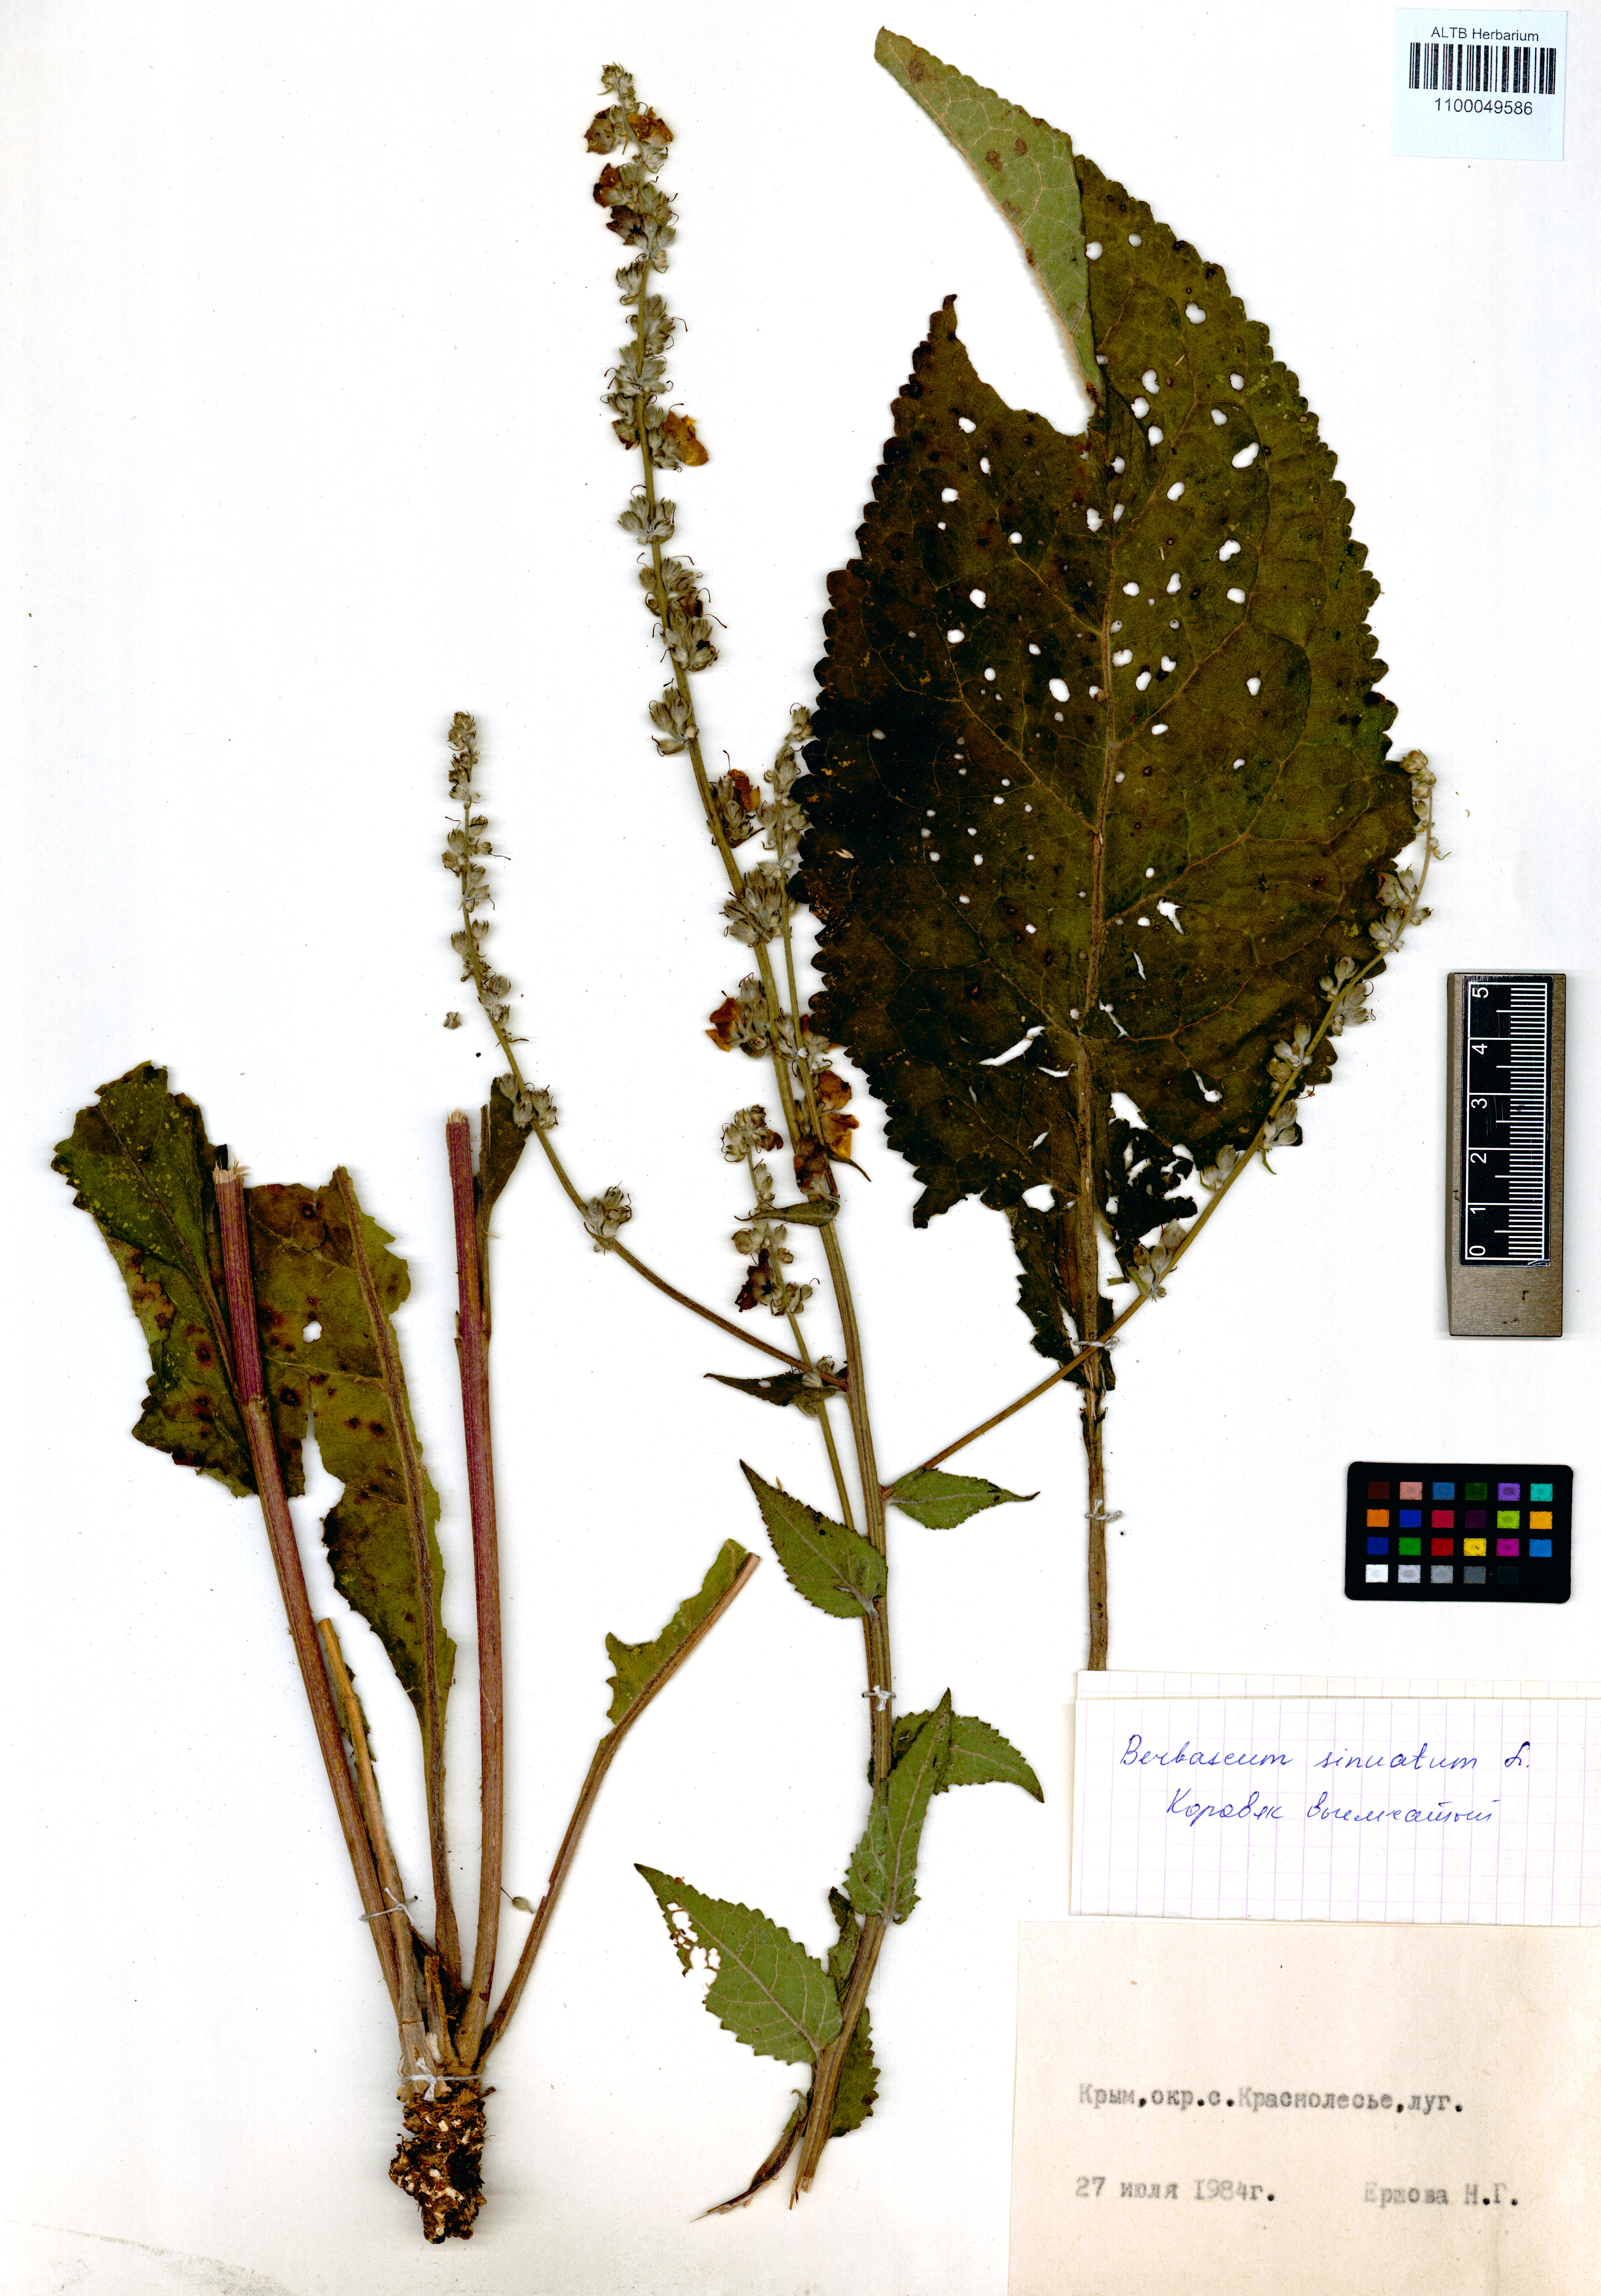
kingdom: Plantae
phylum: Tracheophyta
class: Magnoliopsida
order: Lamiales
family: Scrophulariaceae
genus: Verbascum
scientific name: Verbascum sinuatum
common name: Wavyleaf mullein
